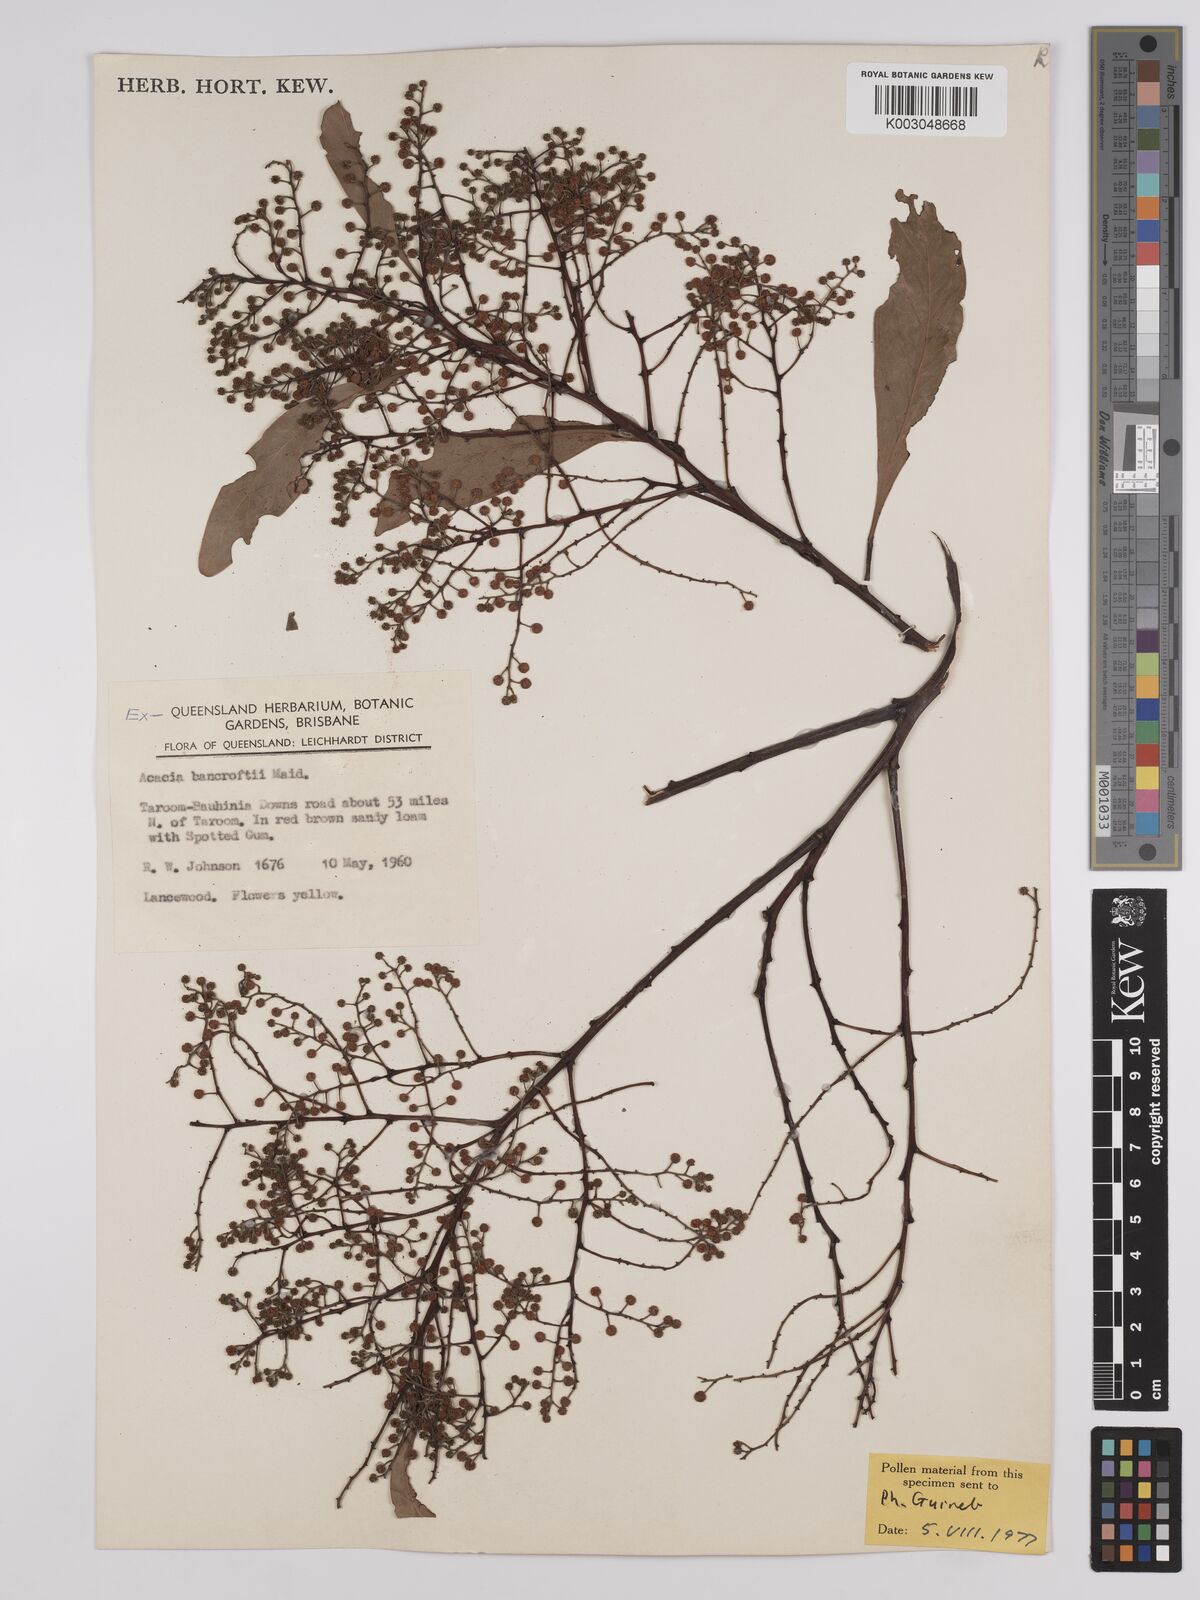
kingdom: Plantae
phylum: Tracheophyta
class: Magnoliopsida
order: Fabales
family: Fabaceae
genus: Acacia
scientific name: Acacia
